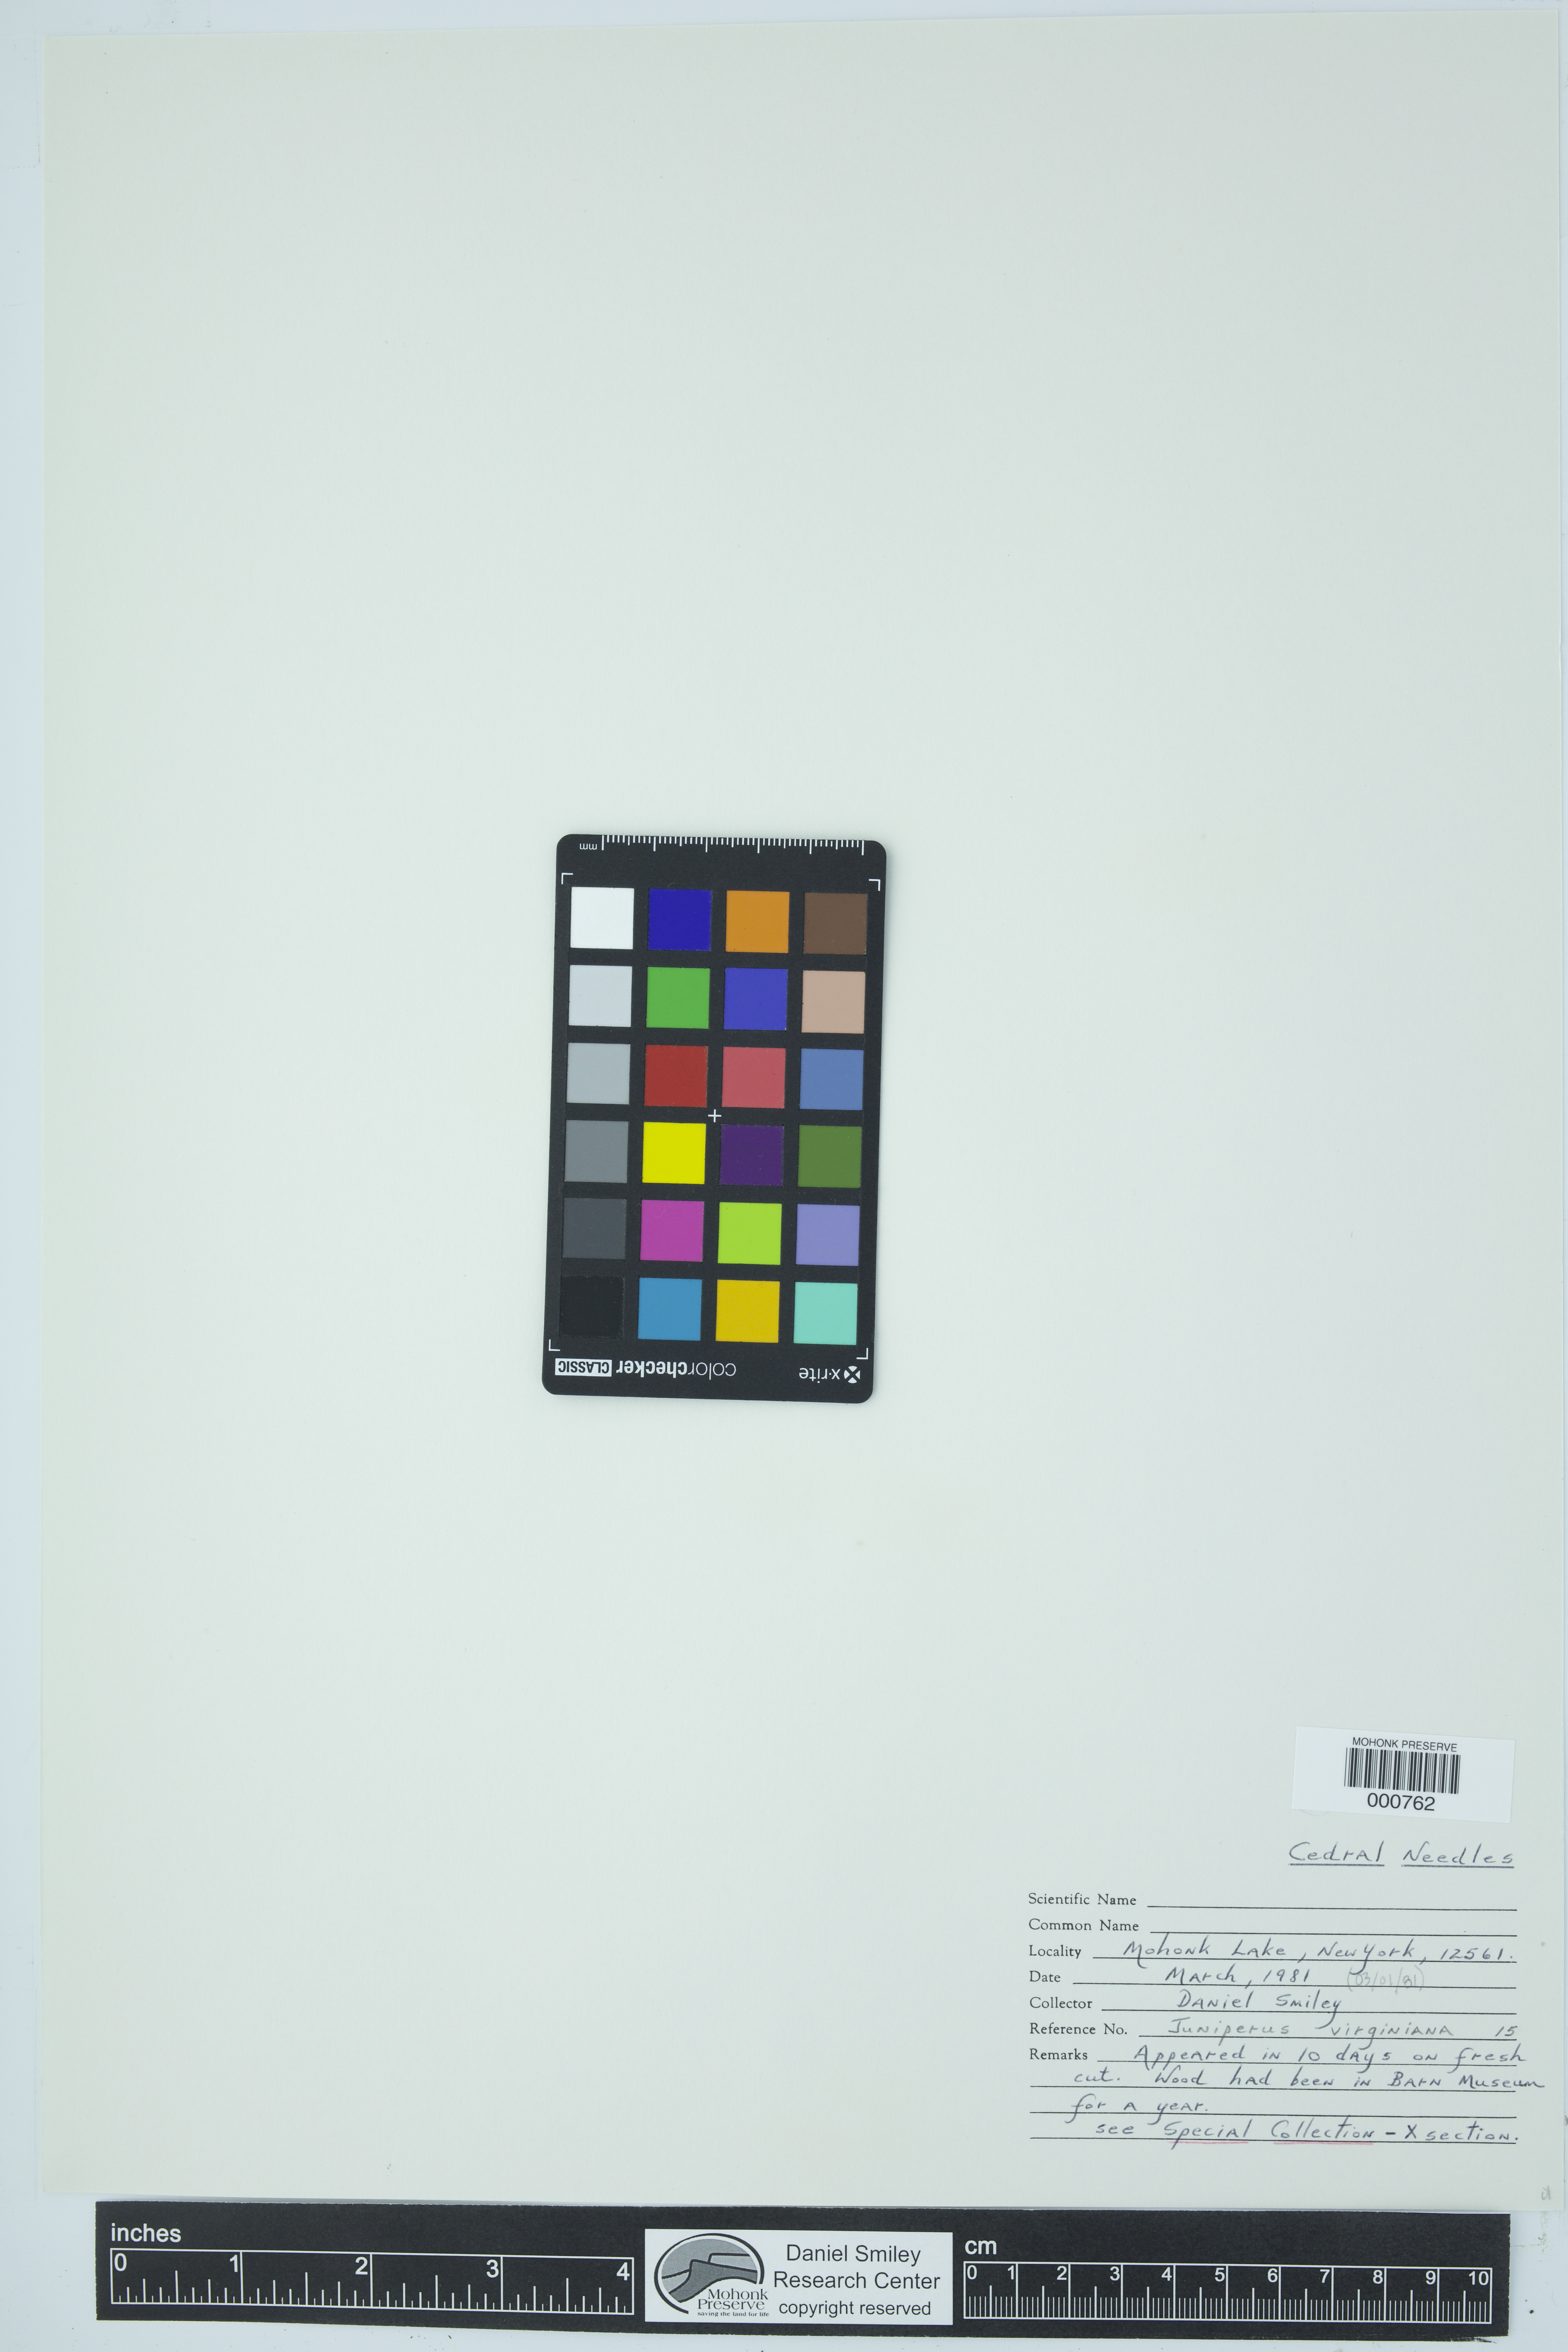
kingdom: Plantae
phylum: Tracheophyta
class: Pinopsida
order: Pinales
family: Cupressaceae
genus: Juniperus
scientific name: Juniperus virginiana
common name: Red juniper
